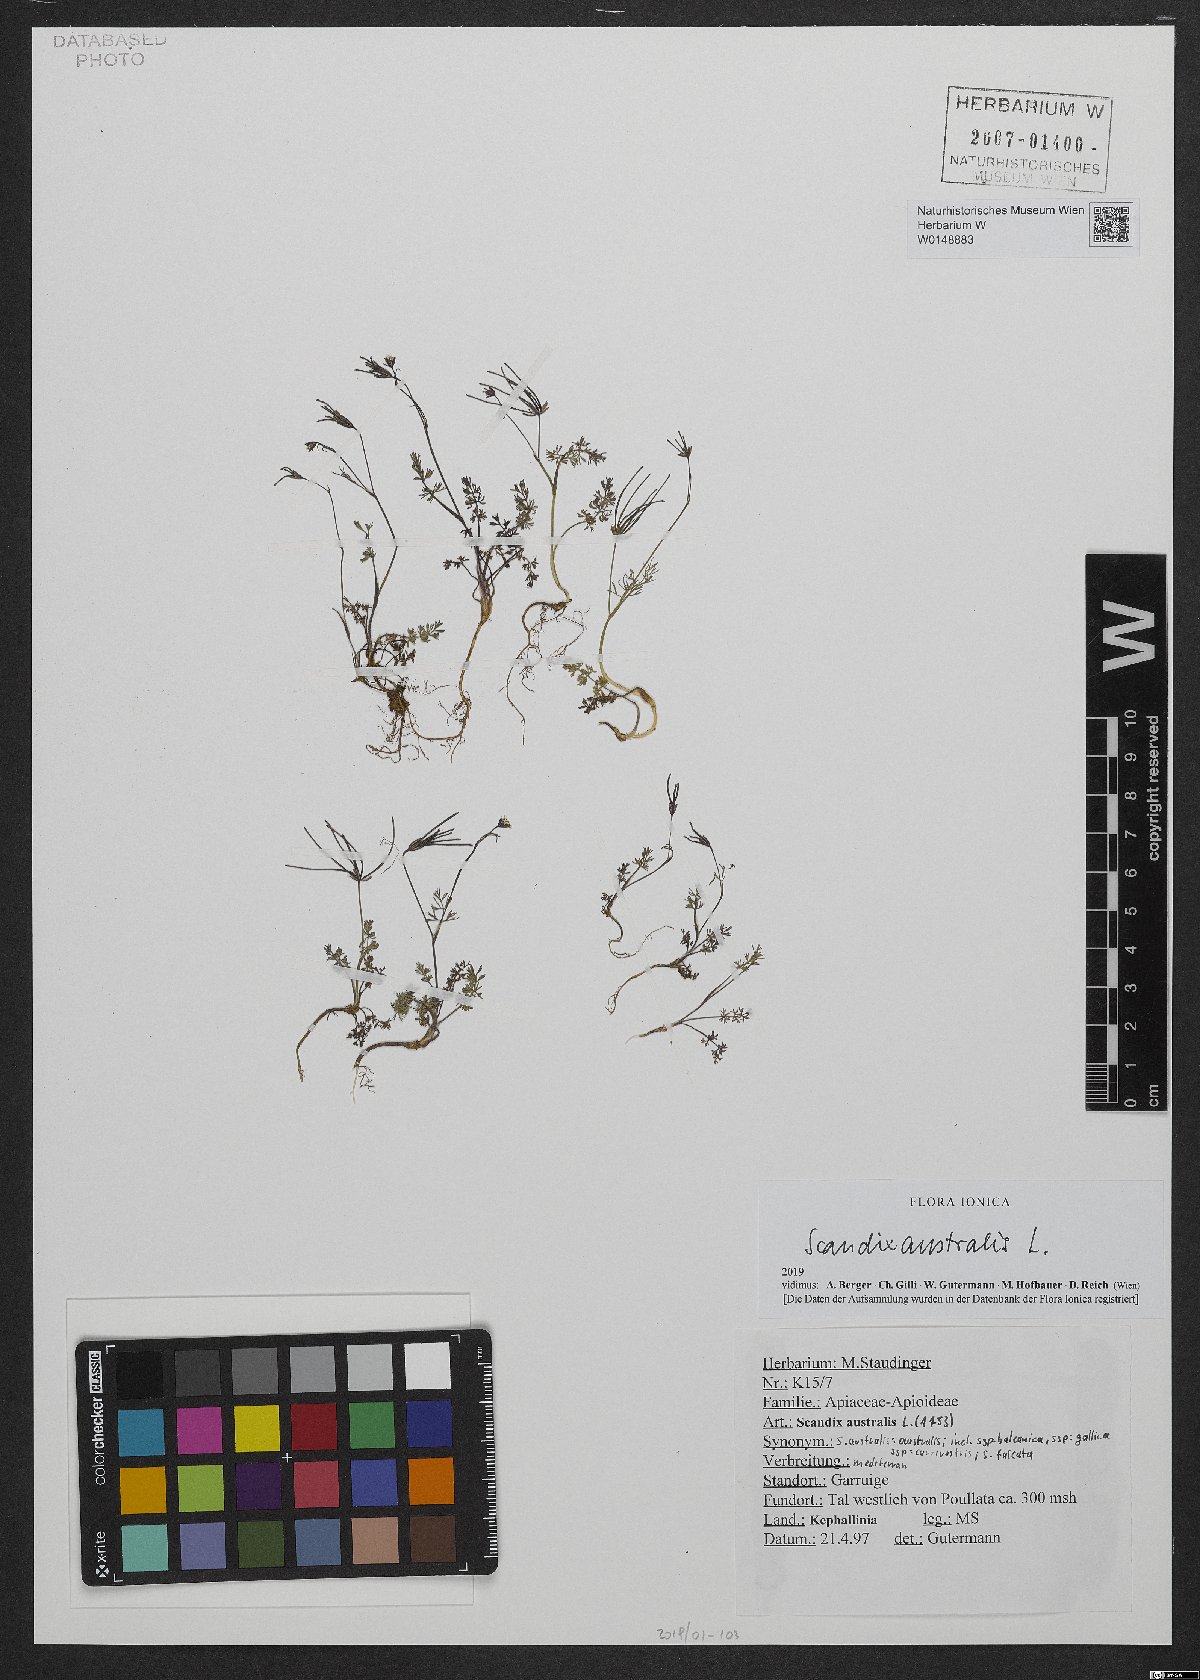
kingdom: Plantae
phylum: Tracheophyta
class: Magnoliopsida
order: Apiales
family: Apiaceae
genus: Scandix
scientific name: Scandix australis
